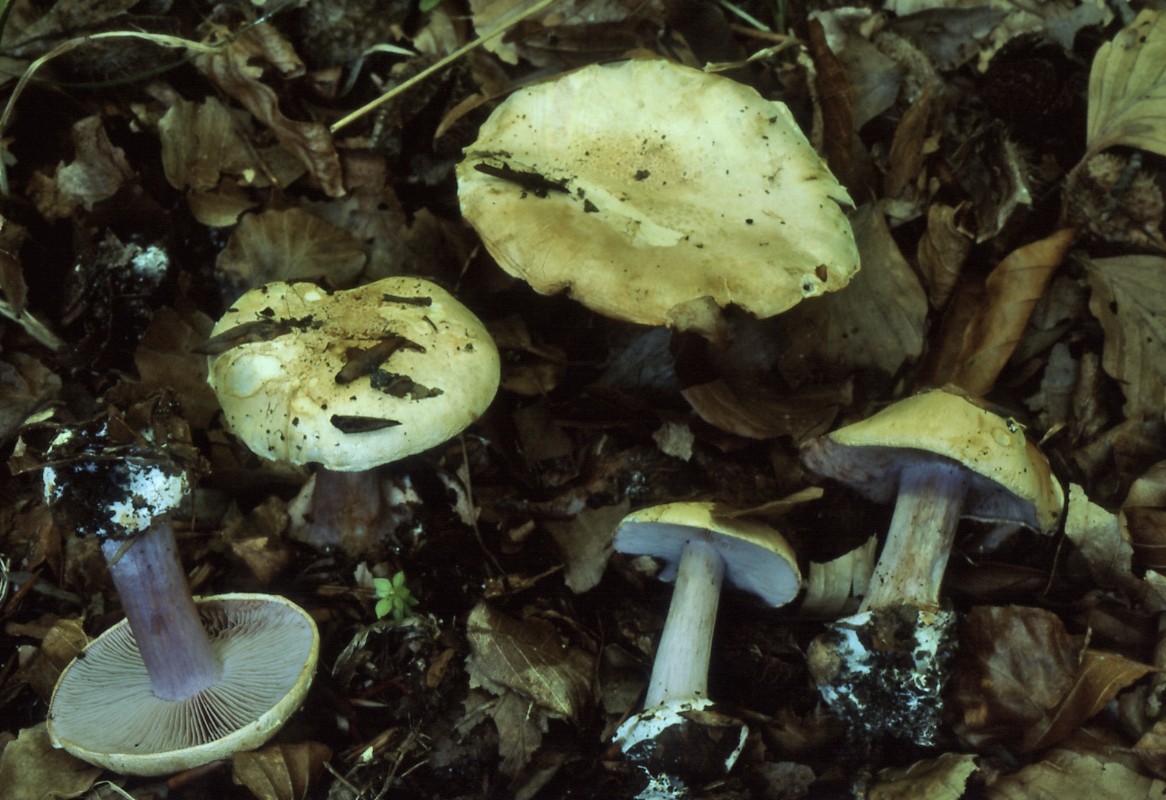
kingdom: Fungi
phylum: Basidiomycota
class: Agaricomycetes
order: Agaricales
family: Cortinariaceae
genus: Calonarius
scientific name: Calonarius insignibulbus
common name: kridt-slørhat
